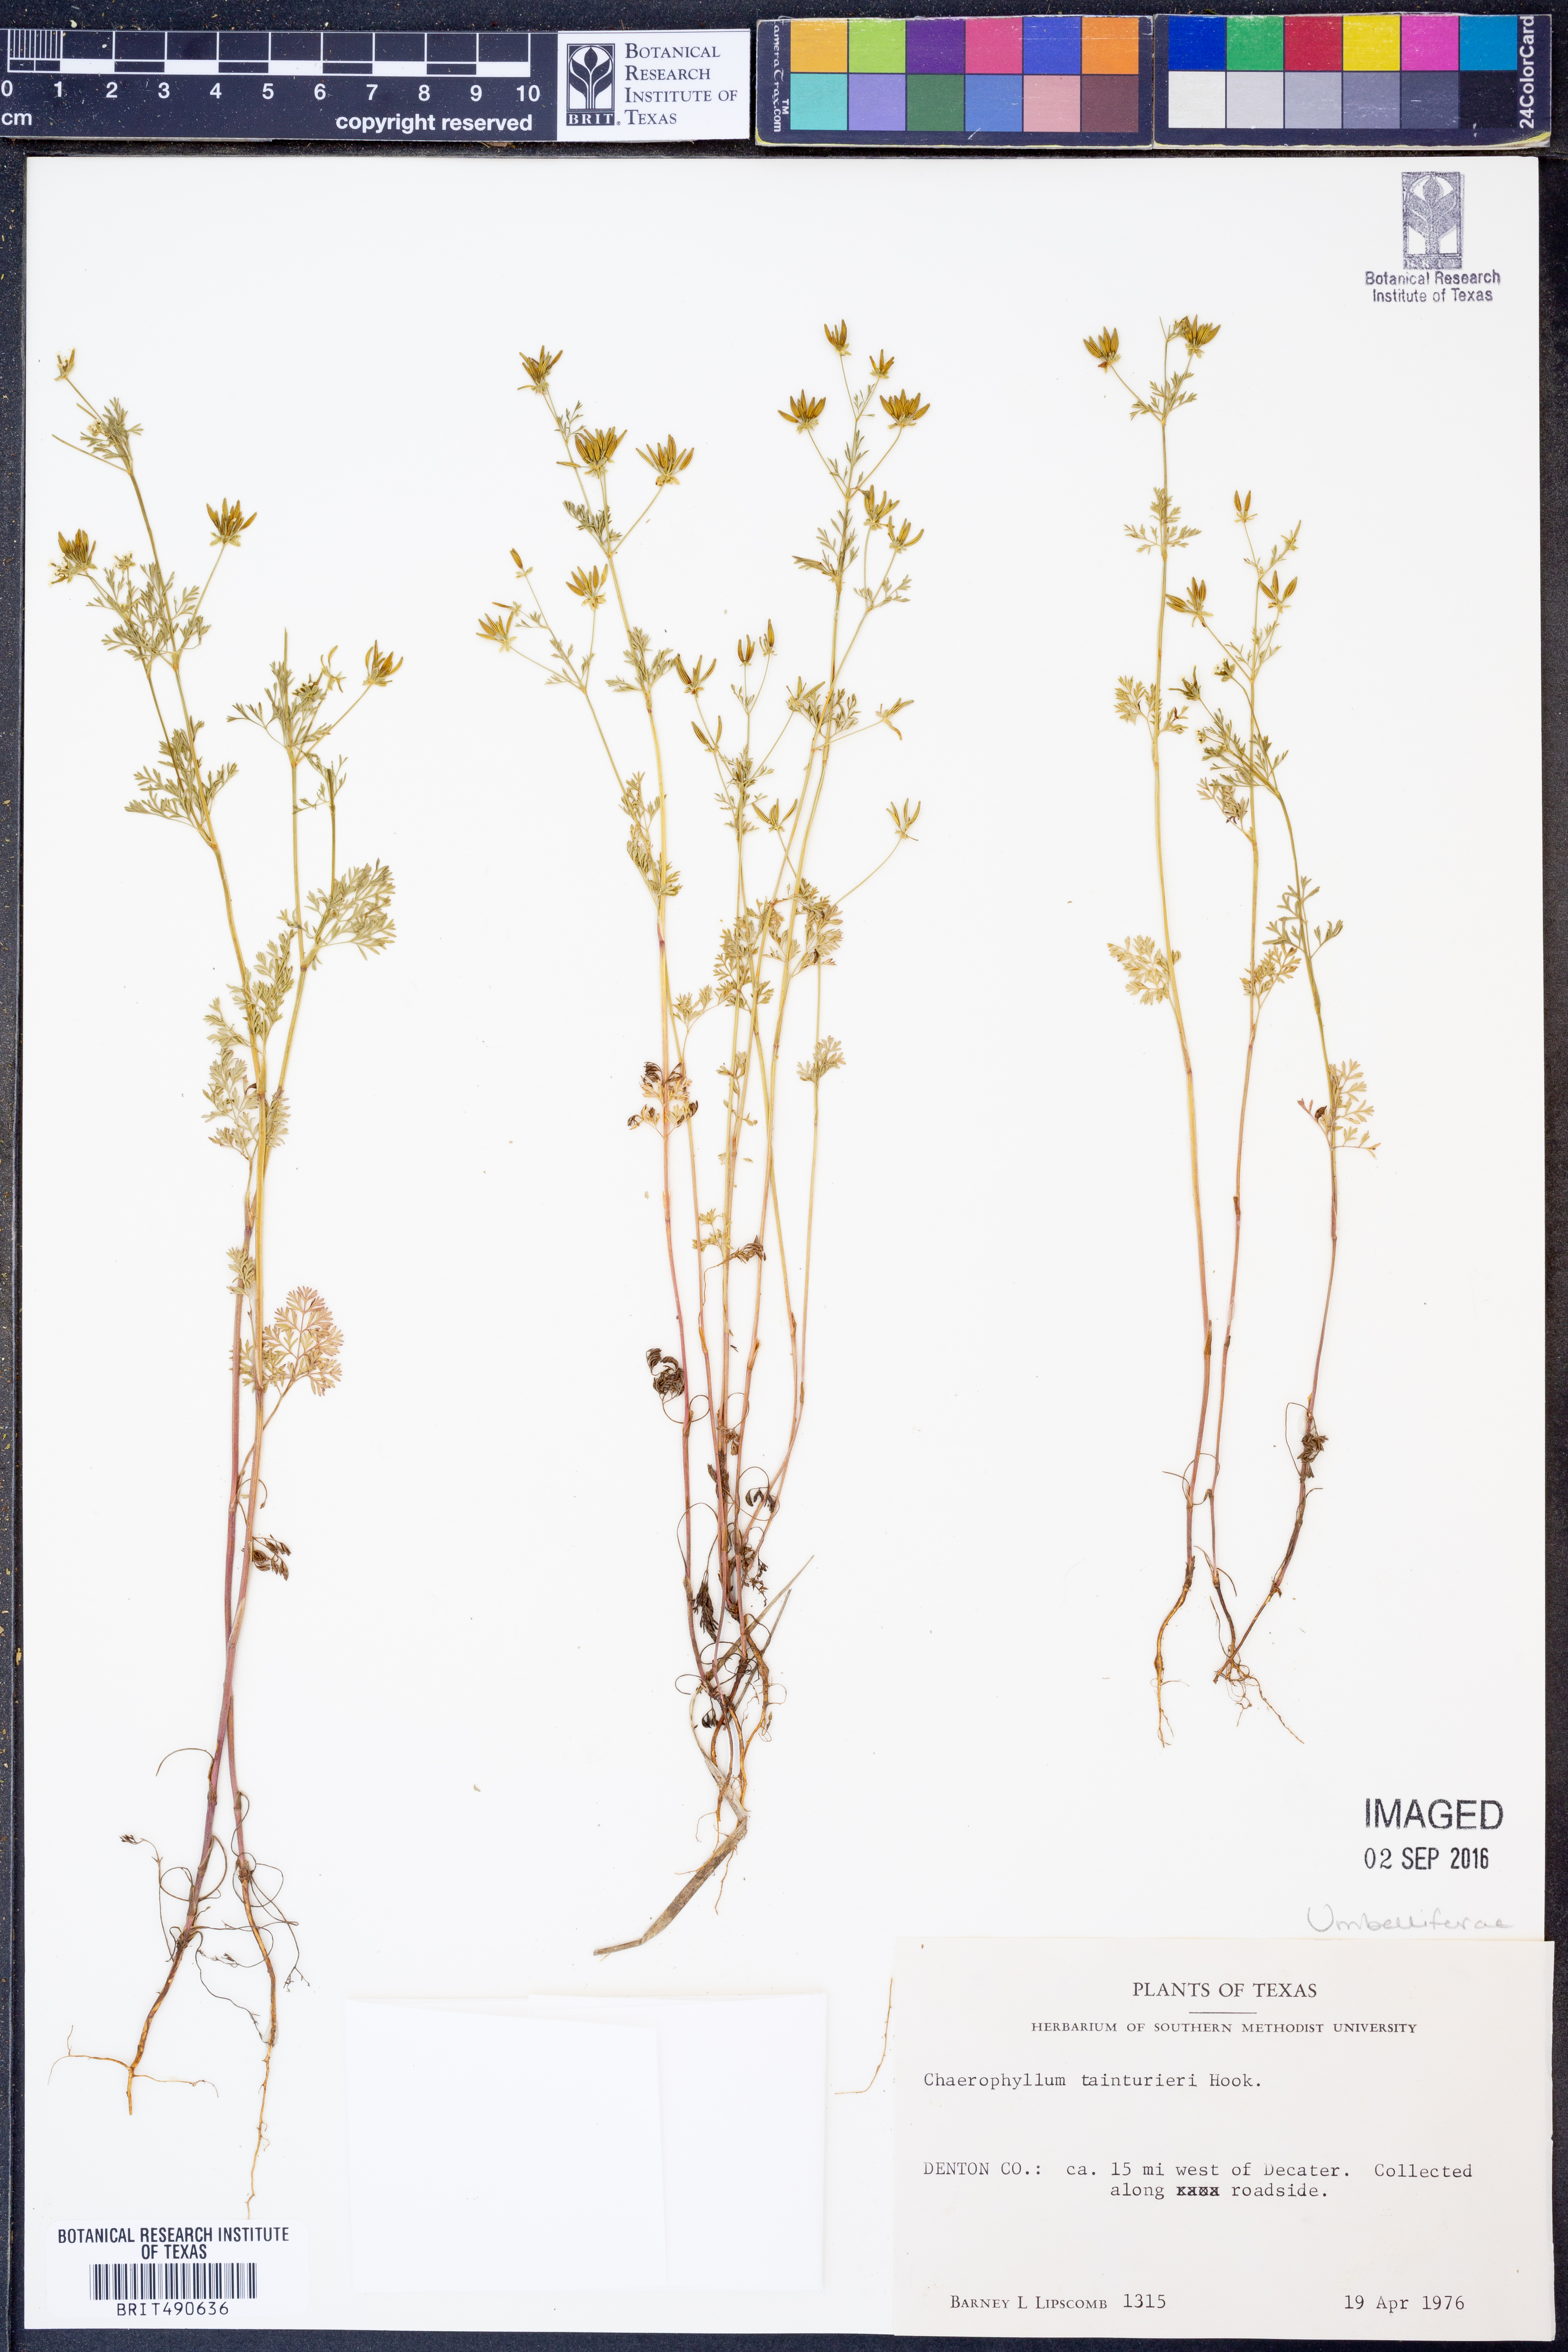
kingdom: Plantae
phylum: Tracheophyta
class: Magnoliopsida
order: Apiales
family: Apiaceae
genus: Chaerophyllum
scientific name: Chaerophyllum tainturieri
